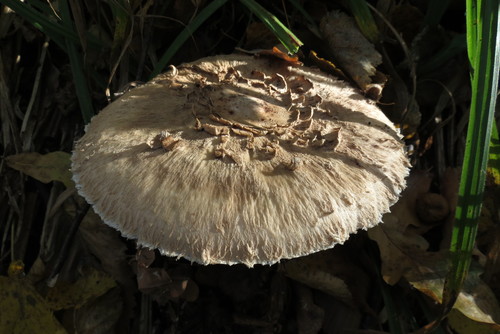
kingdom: Fungi
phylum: Basidiomycota
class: Agaricomycetes
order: Agaricales
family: Agaricaceae
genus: Macrolepiota
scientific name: Macrolepiota procera
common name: Parasol
